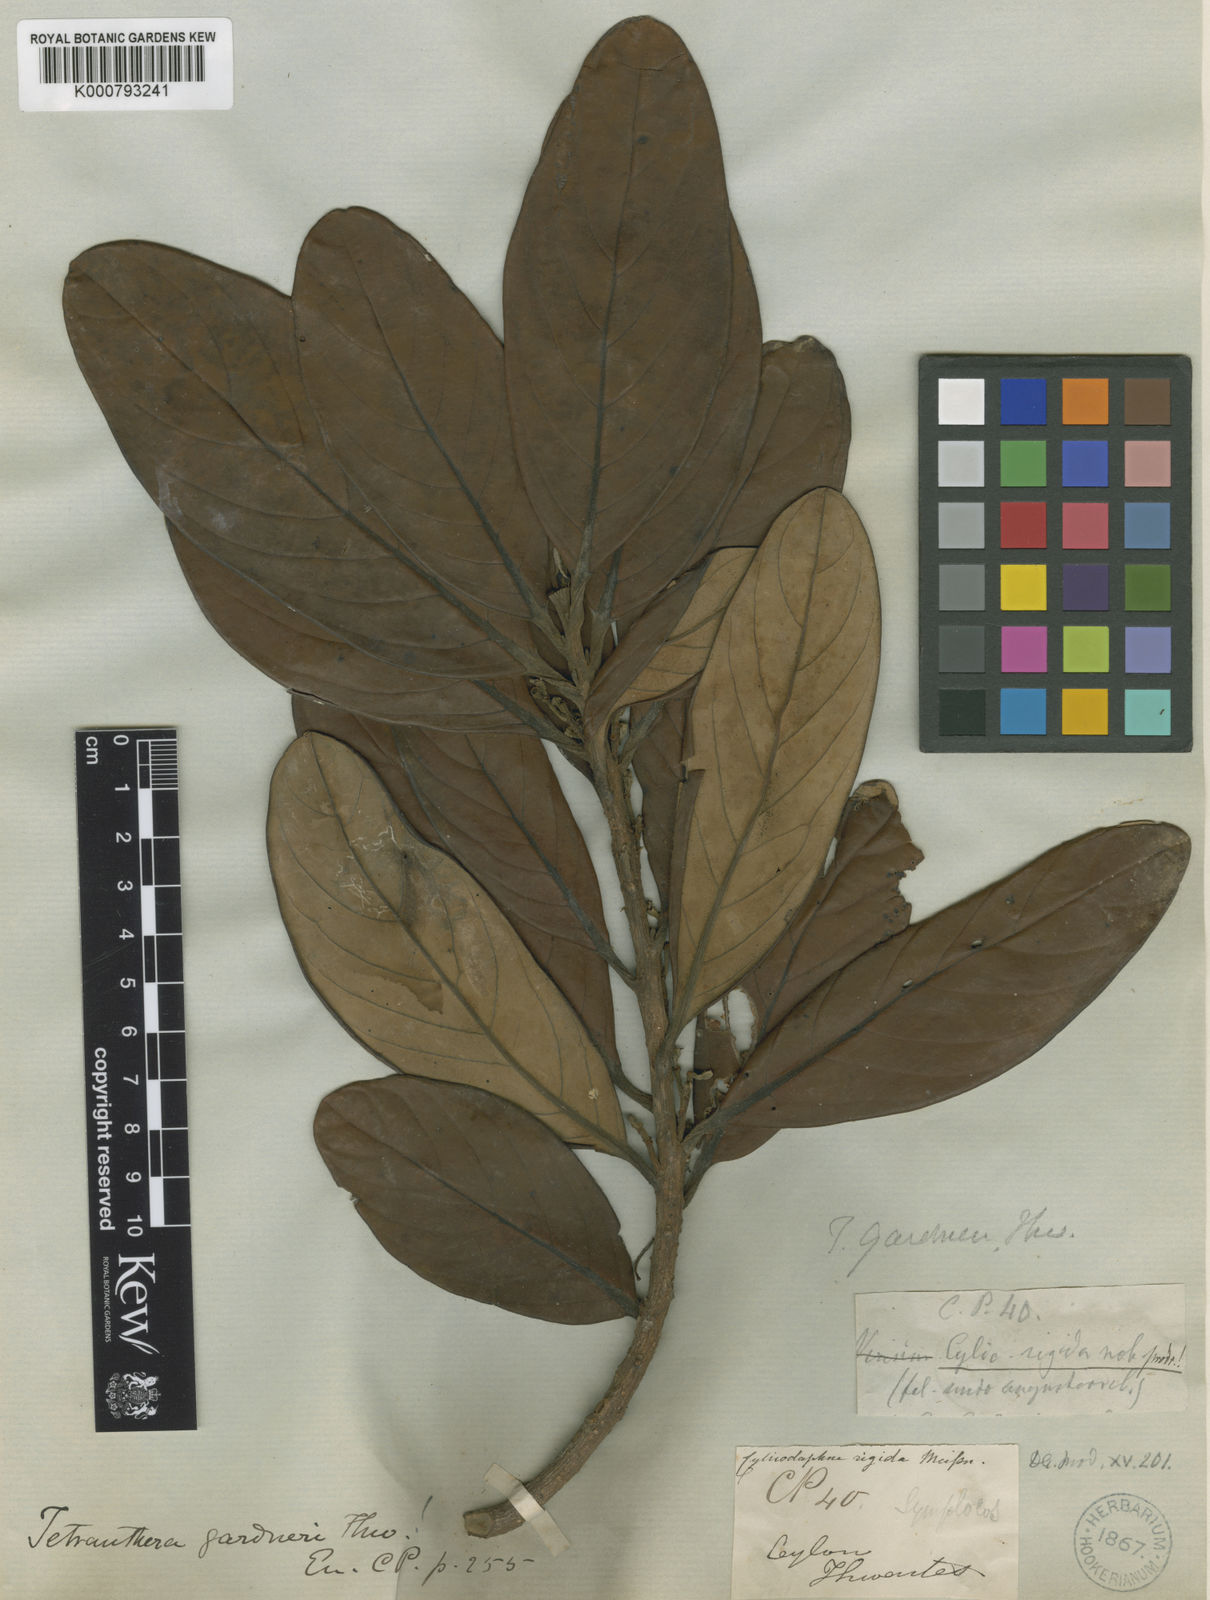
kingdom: Plantae
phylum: Tracheophyta
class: Magnoliopsida
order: Laurales
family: Lauraceae
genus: Litsea
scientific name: Litsea gardneri
